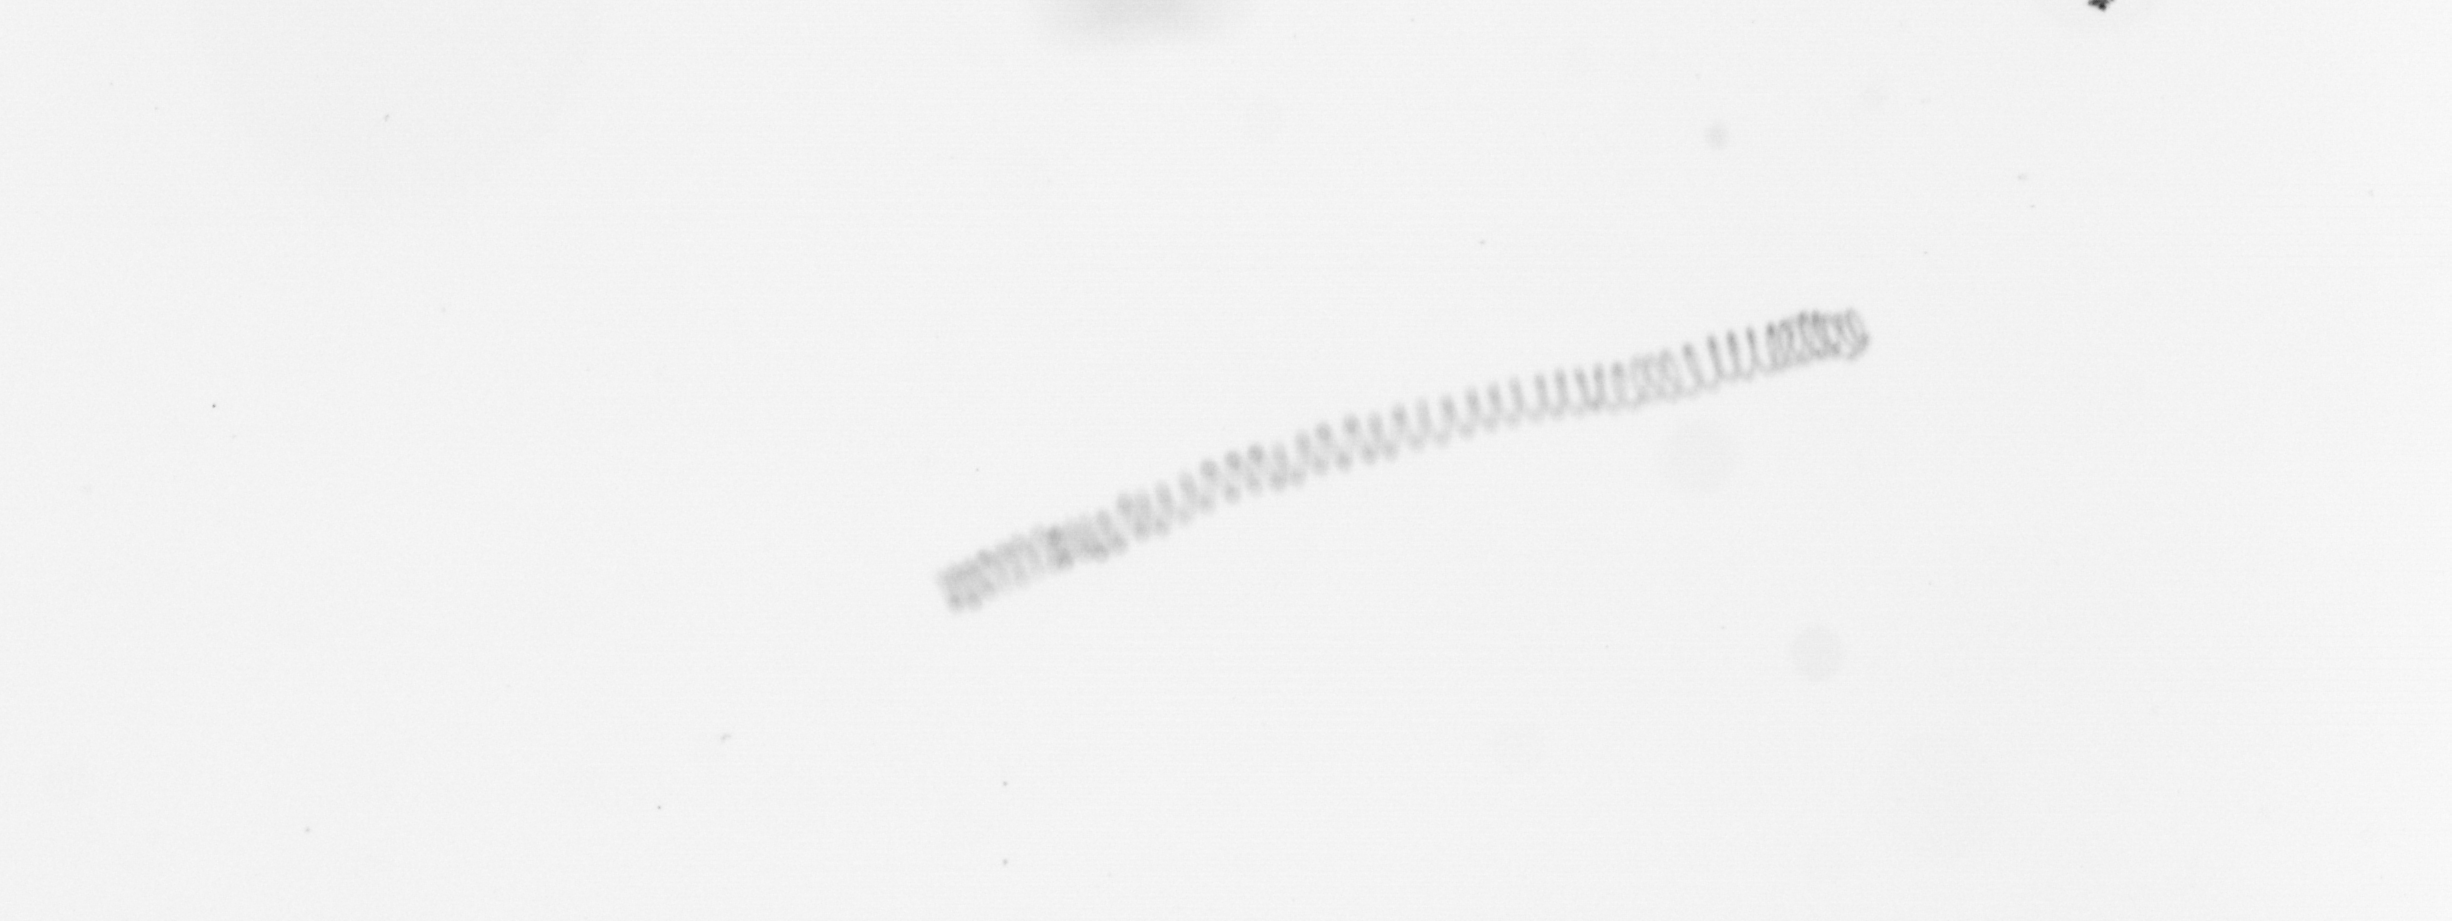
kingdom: Chromista
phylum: Ochrophyta
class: Bacillariophyceae
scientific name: Bacillariophyceae
